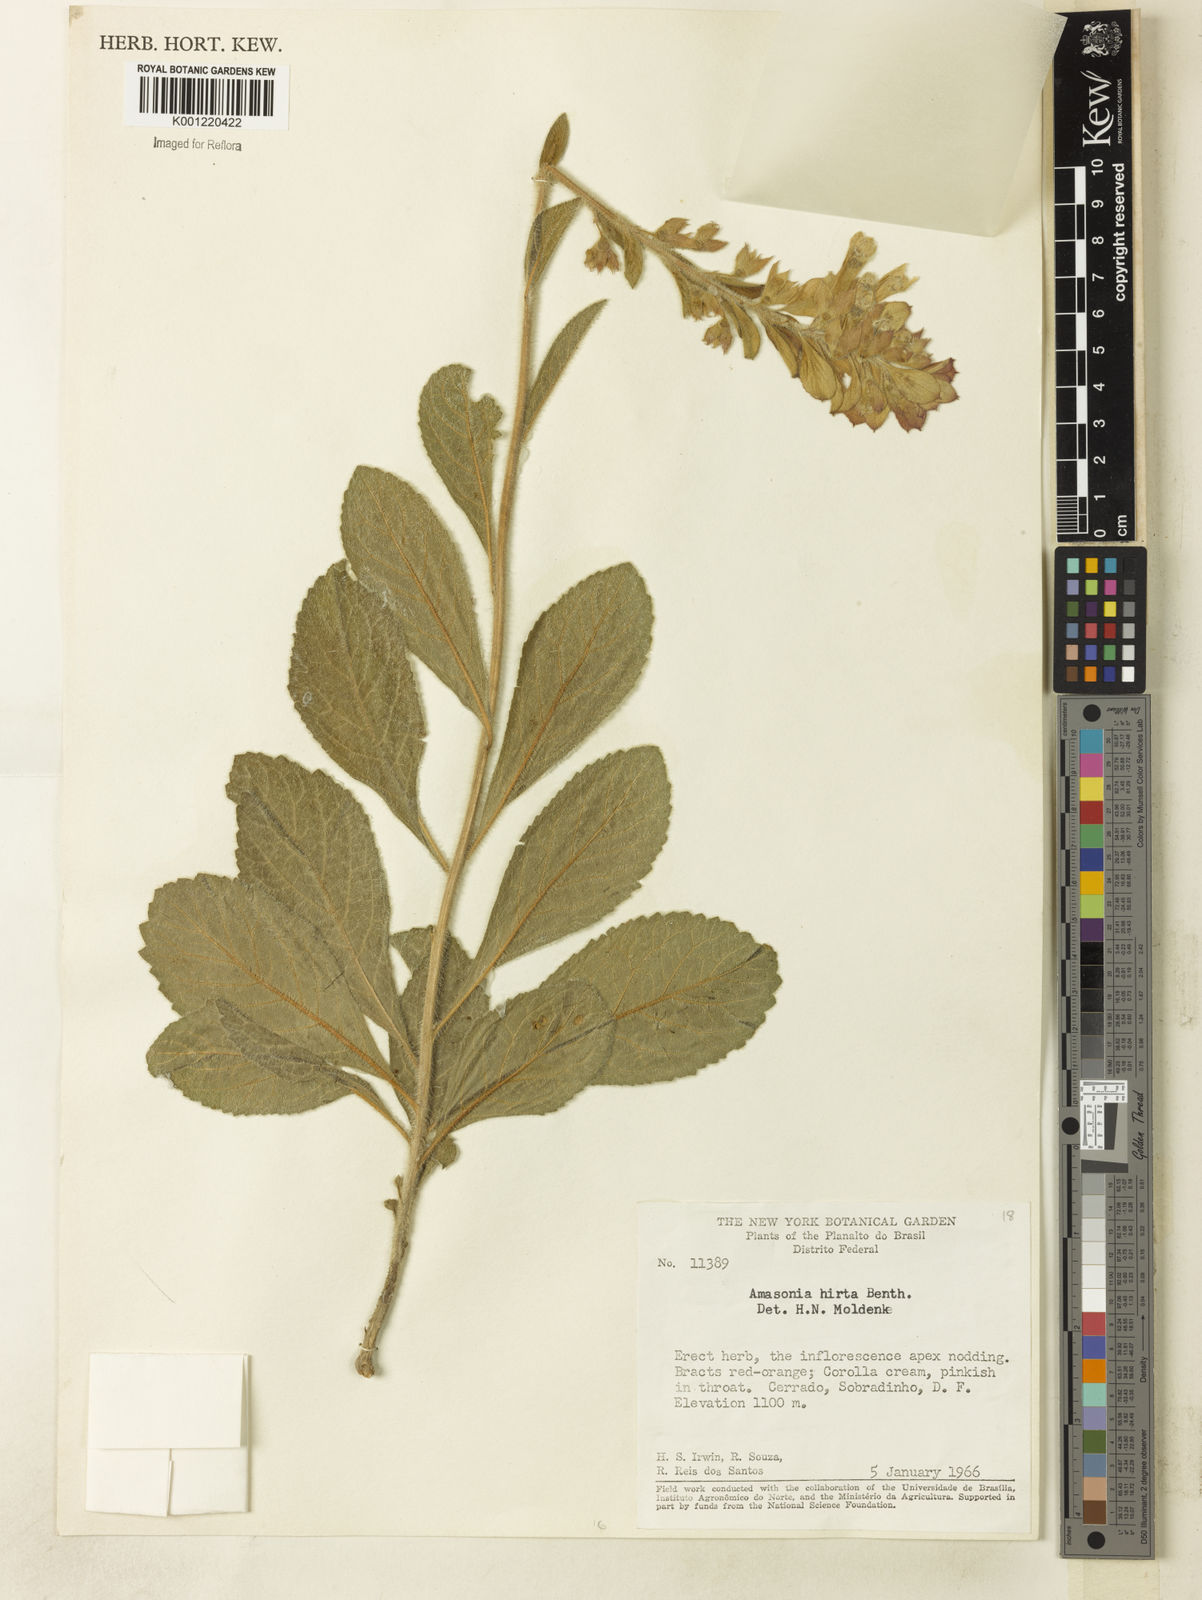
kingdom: Plantae
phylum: Tracheophyta
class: Magnoliopsida
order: Lamiales
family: Lamiaceae
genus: Amasonia
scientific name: Amasonia hirta
